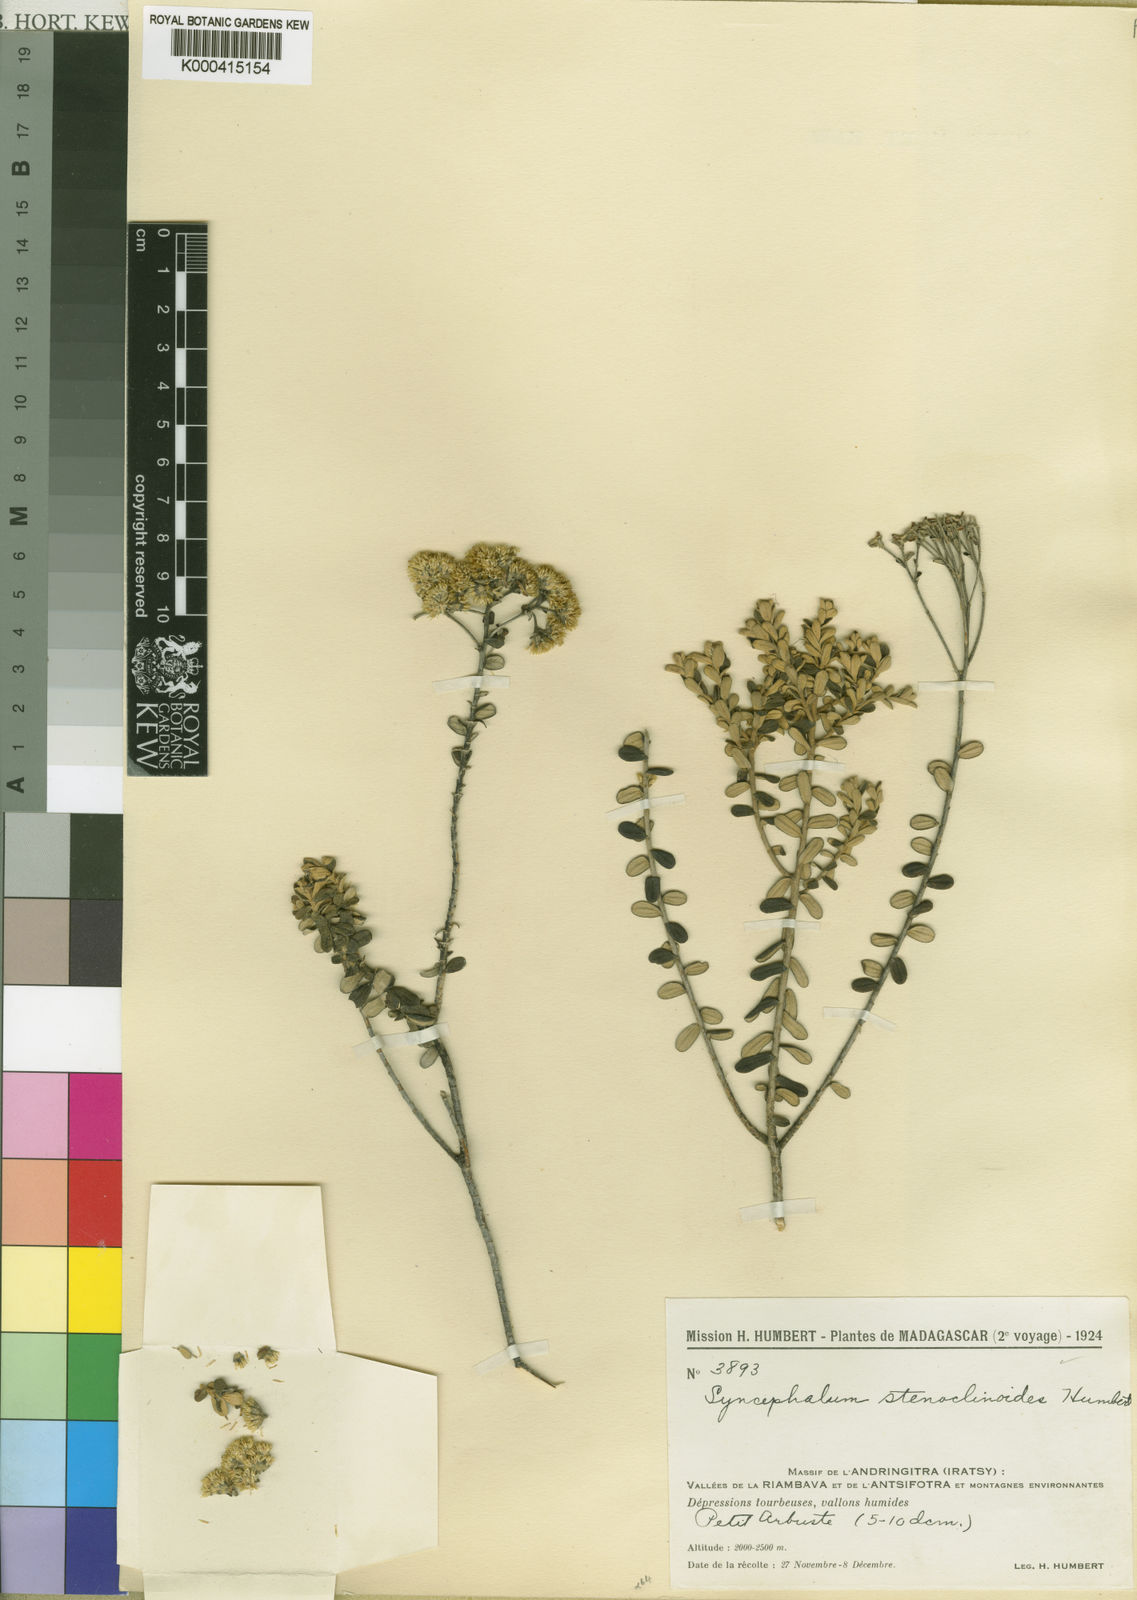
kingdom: Plantae
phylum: Tracheophyta
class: Magnoliopsida
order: Asterales
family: Asteraceae
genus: Syncephalum
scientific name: Syncephalum stenoclinoides
